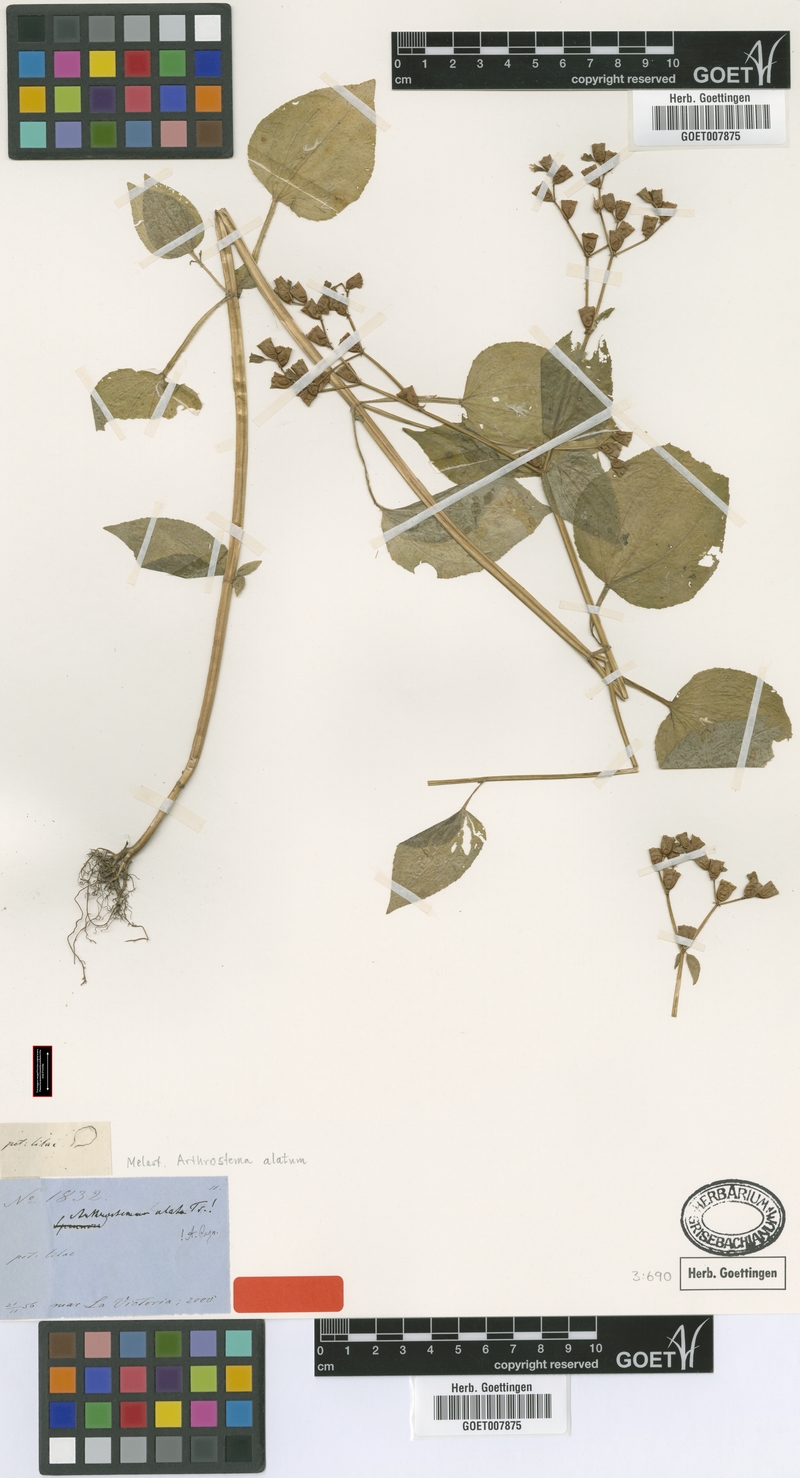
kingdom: Plantae
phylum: Tracheophyta
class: Magnoliopsida
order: Myrtales
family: Melastomataceae
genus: Arthrostemma
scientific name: Arthrostemma Arthrostema alatum
